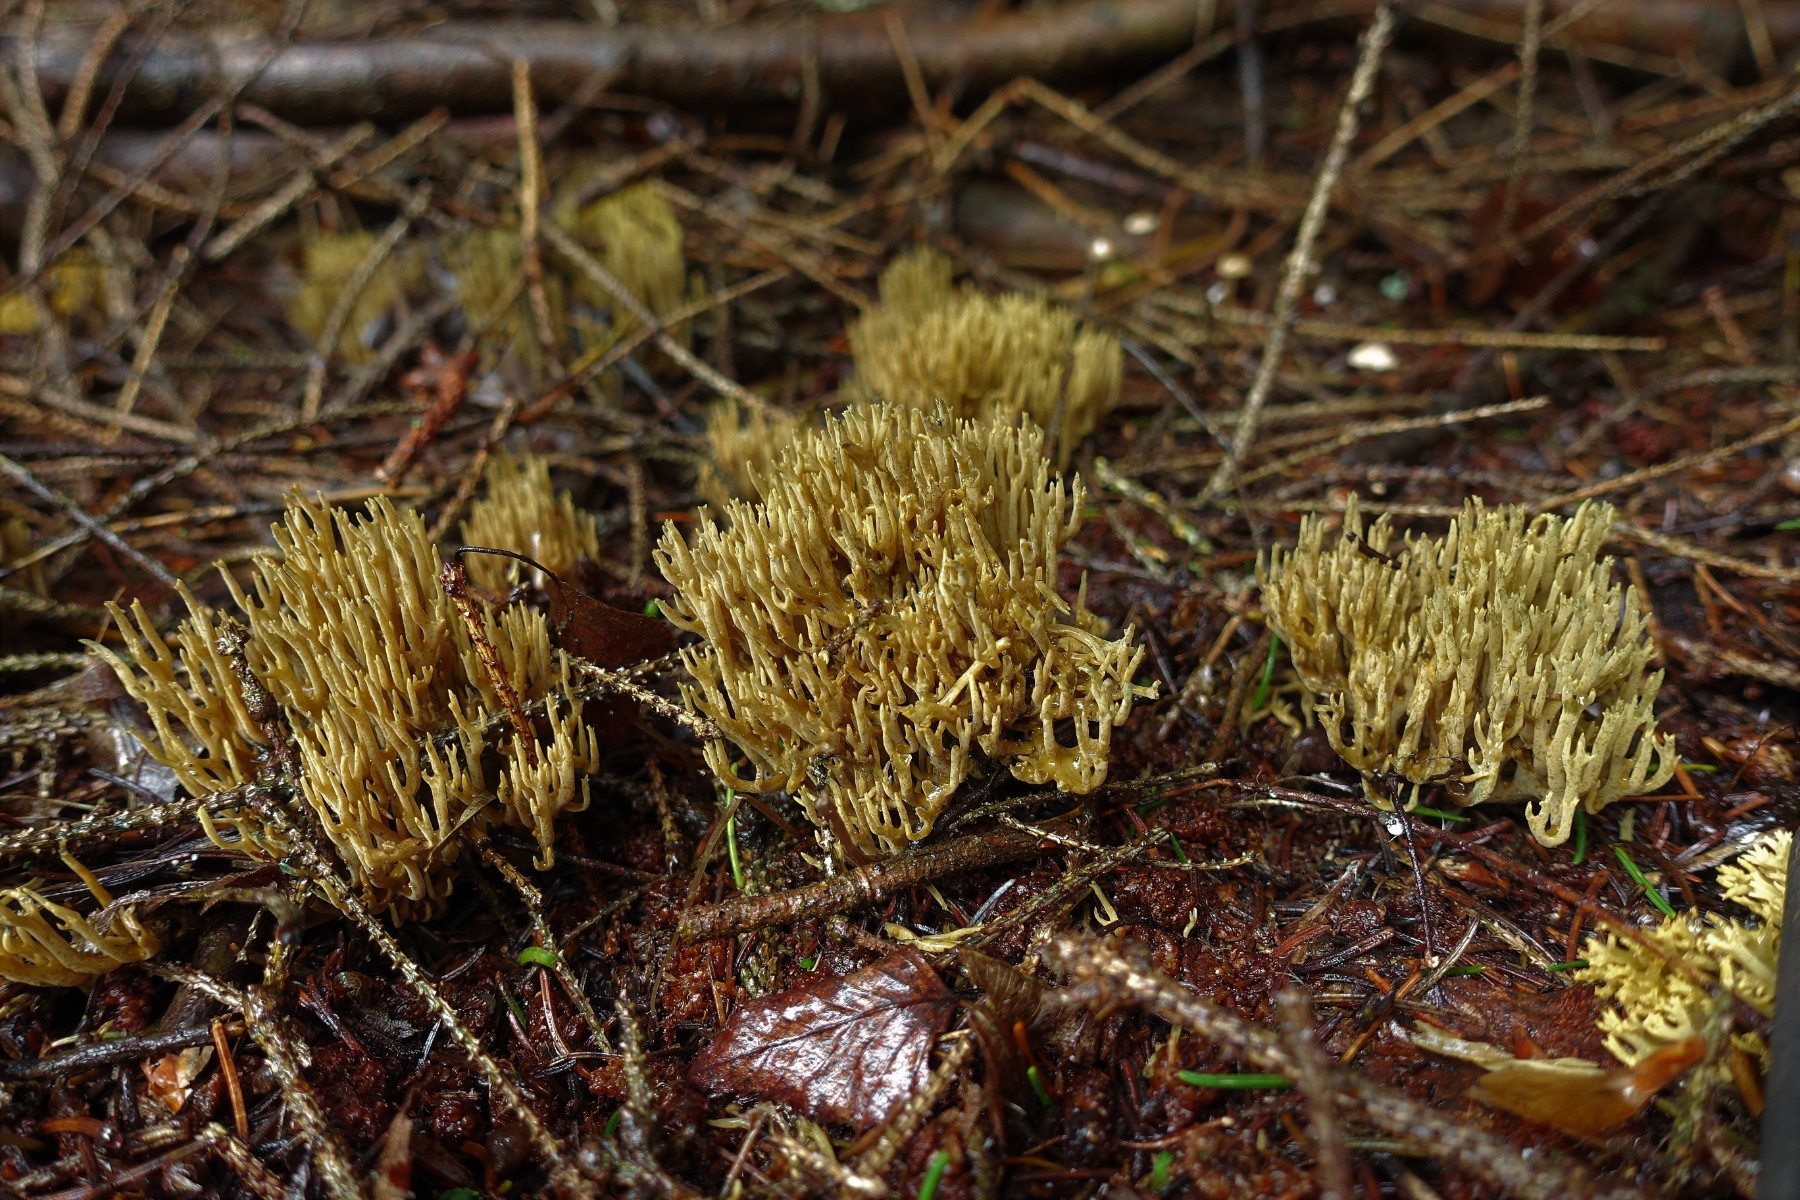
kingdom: Fungi
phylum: Basidiomycota
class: Agaricomycetes
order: Gomphales
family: Gomphaceae
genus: Phaeoclavulina
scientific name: Phaeoclavulina eumorpha
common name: gran-koralsvamp
